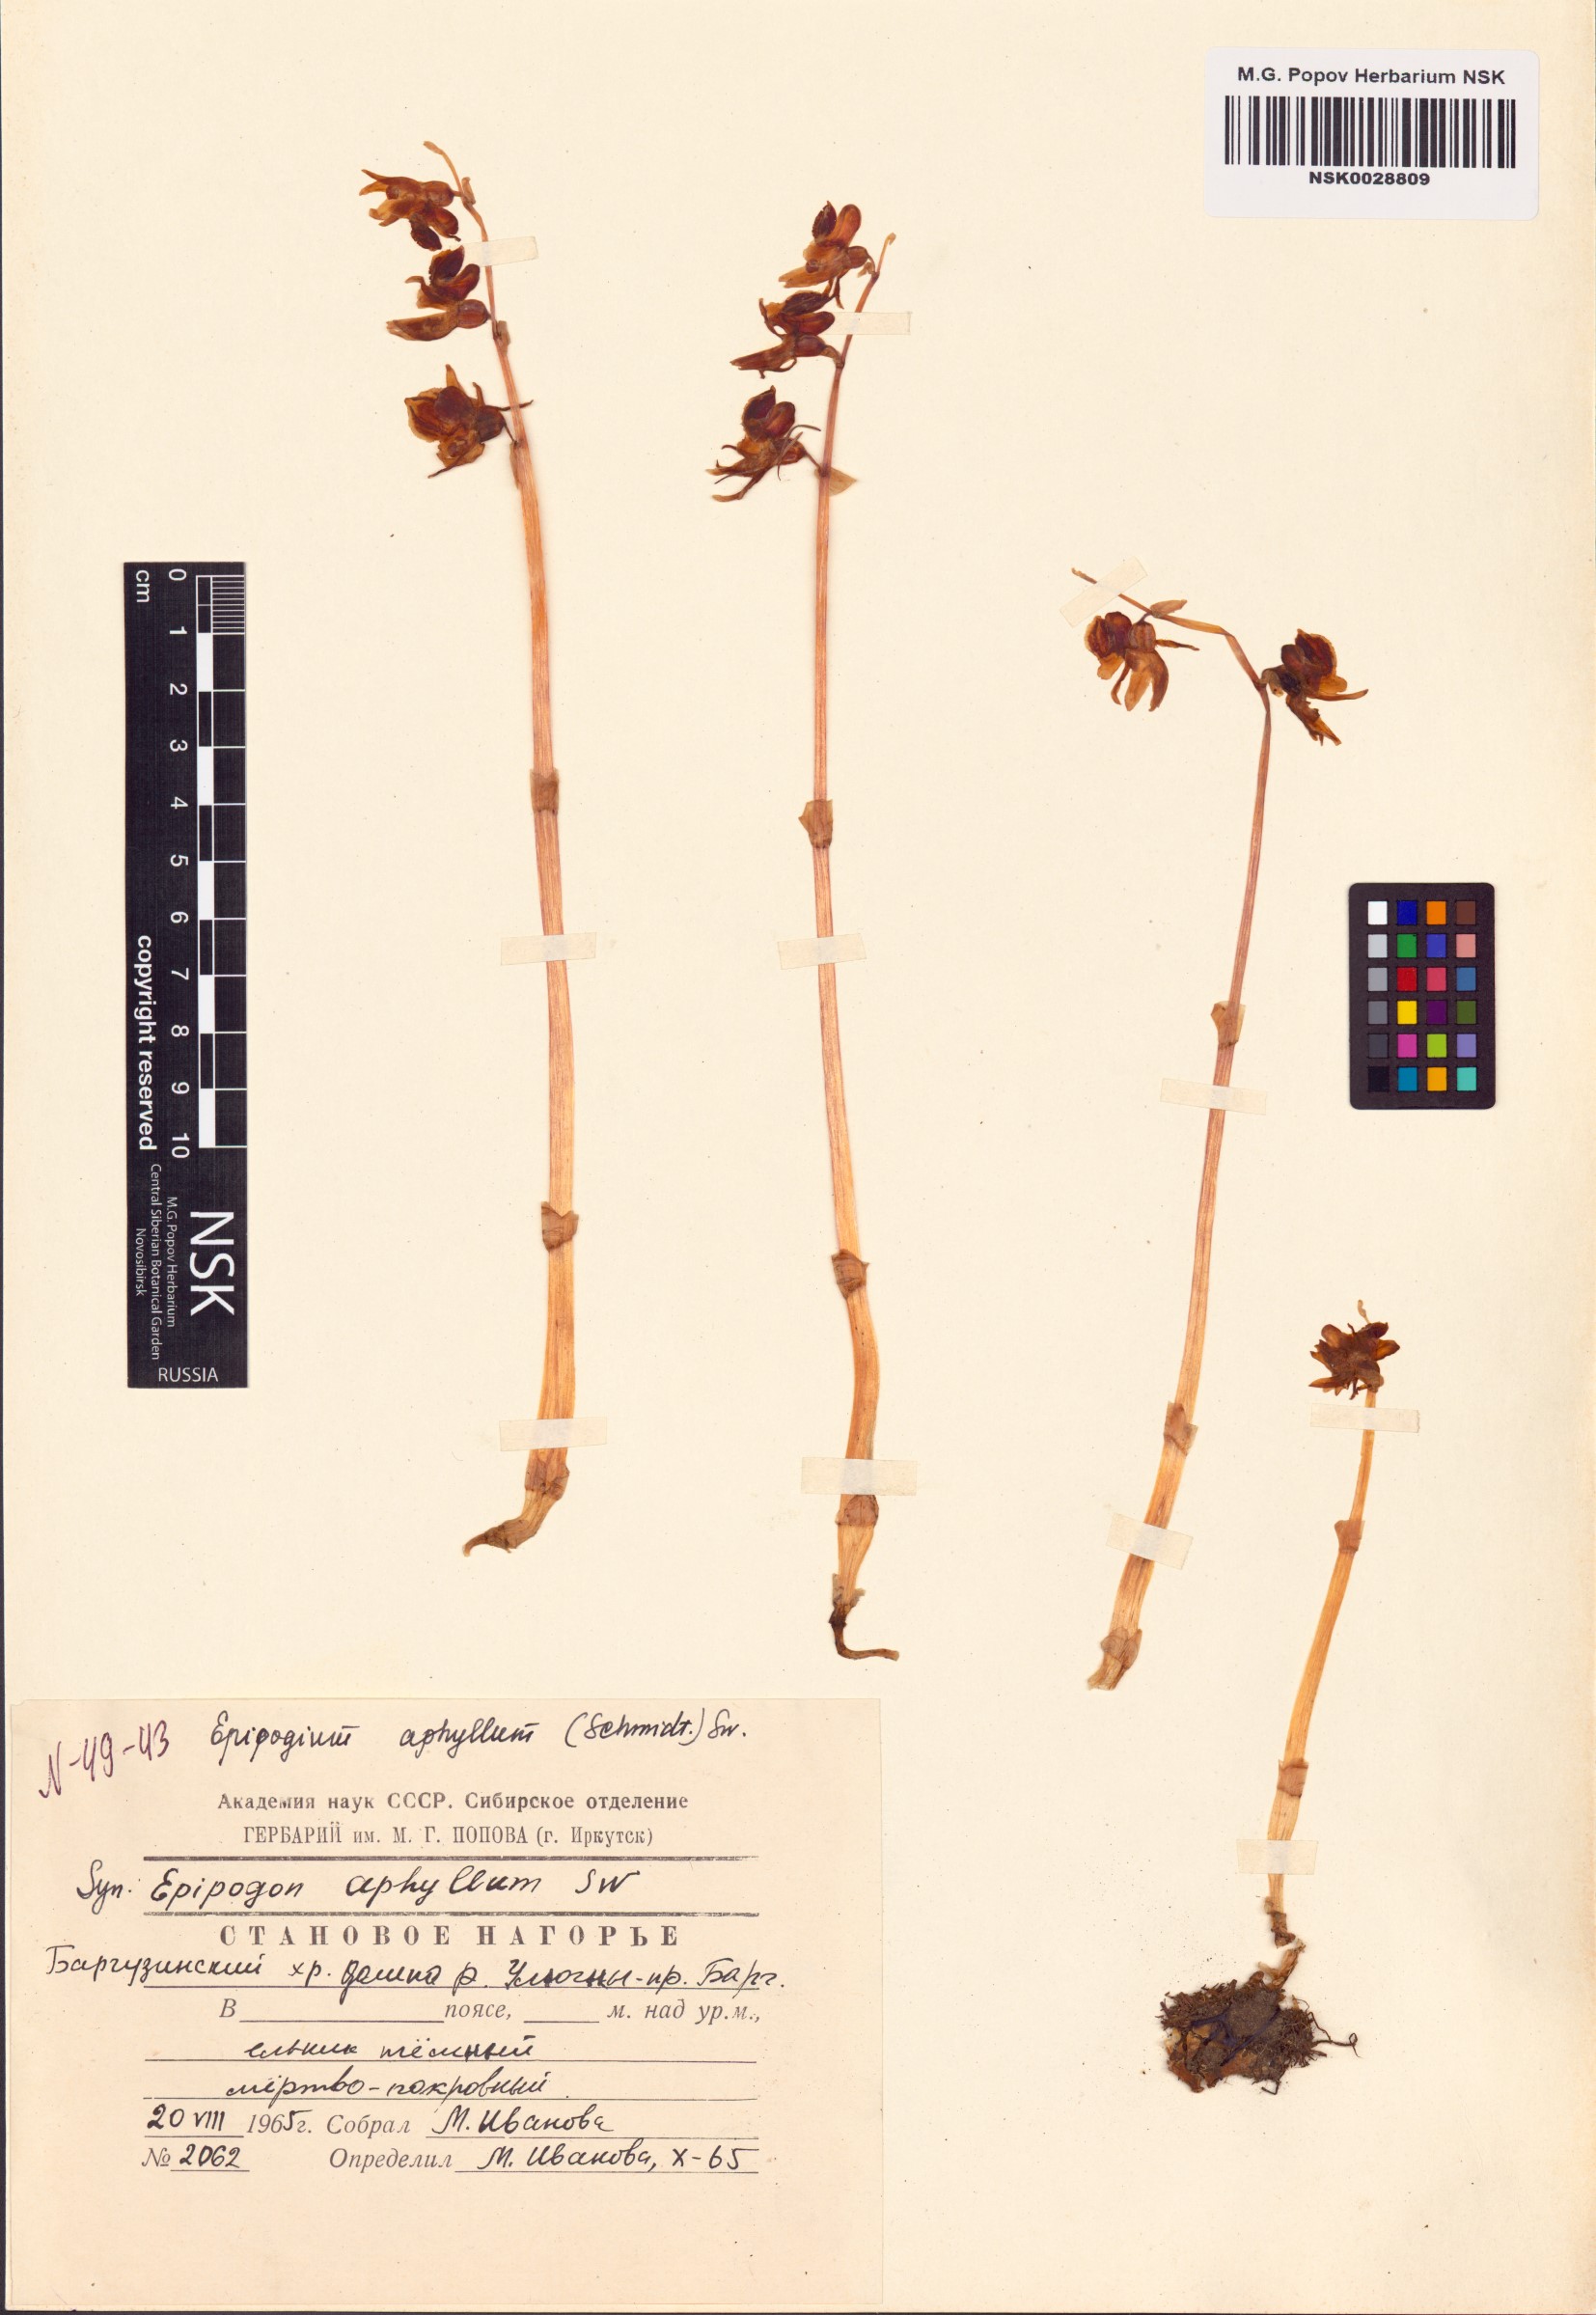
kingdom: Plantae
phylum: Tracheophyta
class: Liliopsida
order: Asparagales
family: Orchidaceae
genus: Epipogium
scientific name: Epipogium aphyllum
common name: Ghost orchid
